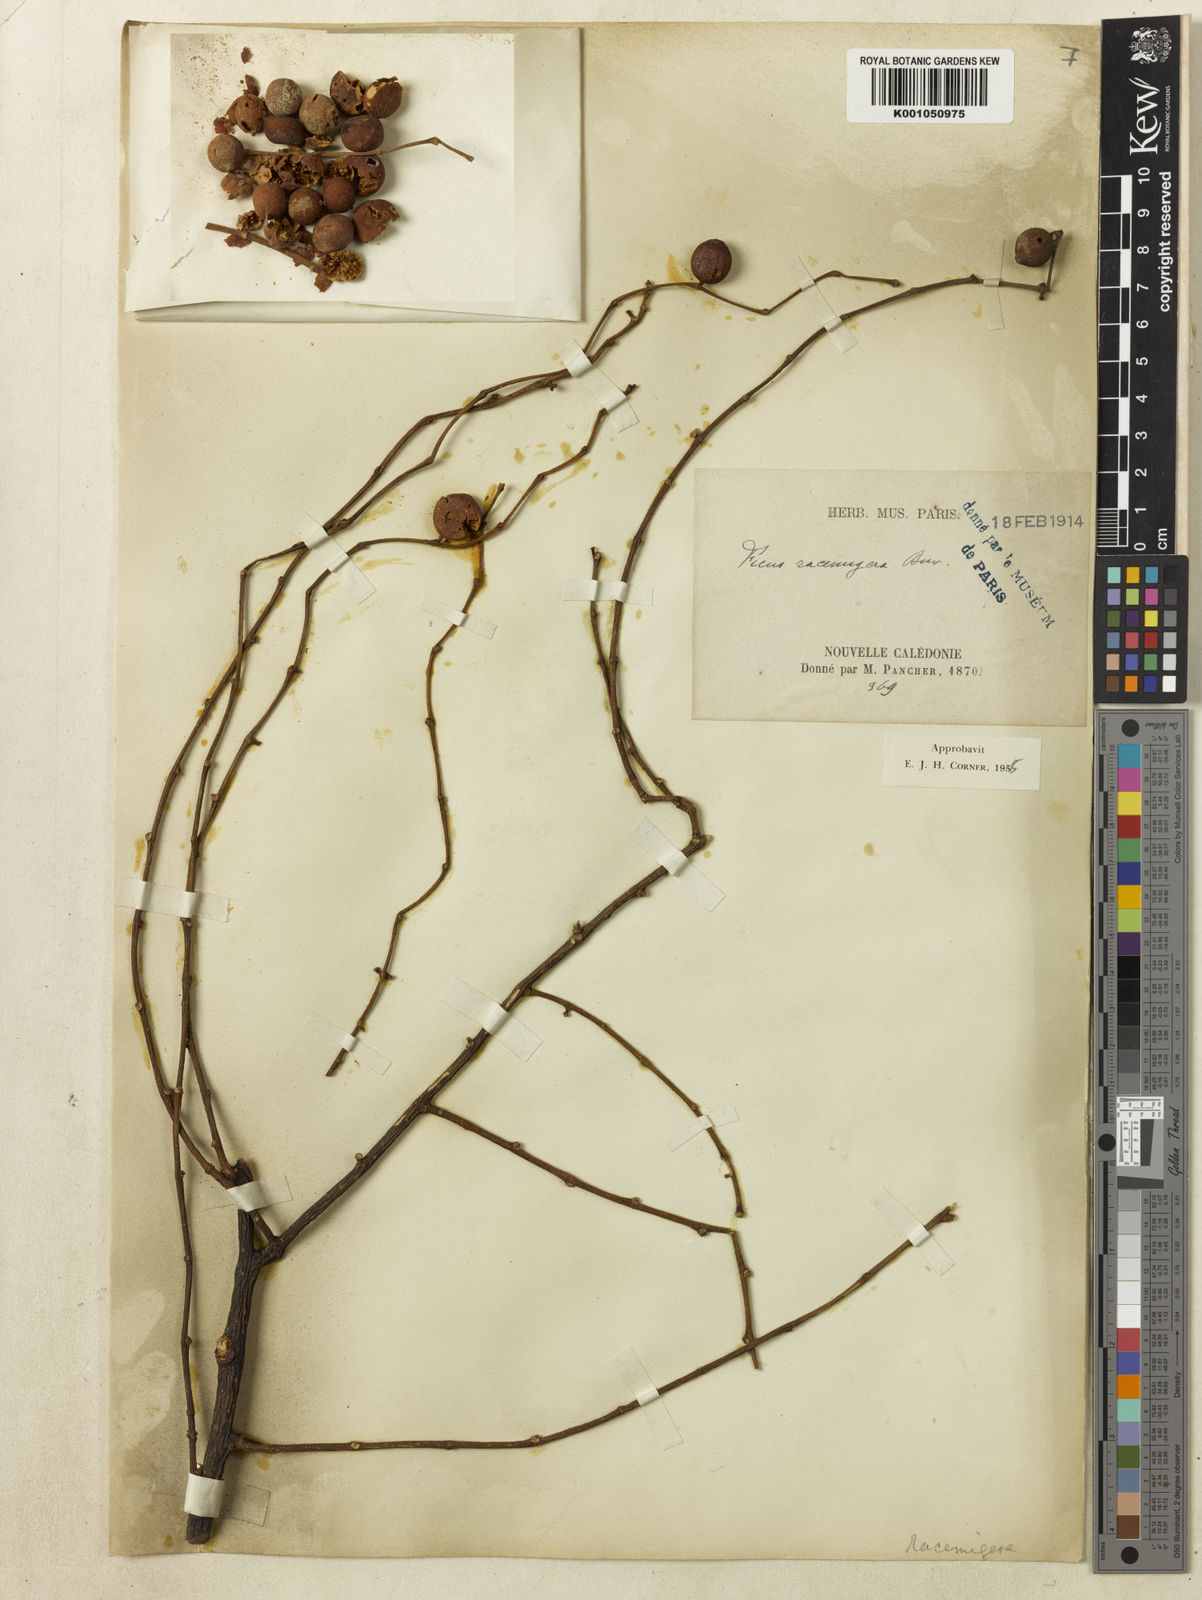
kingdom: Plantae
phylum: Tracheophyta
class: Magnoliopsida
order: Rosales
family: Moraceae
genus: Ficus
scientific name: Ficus racemigera
